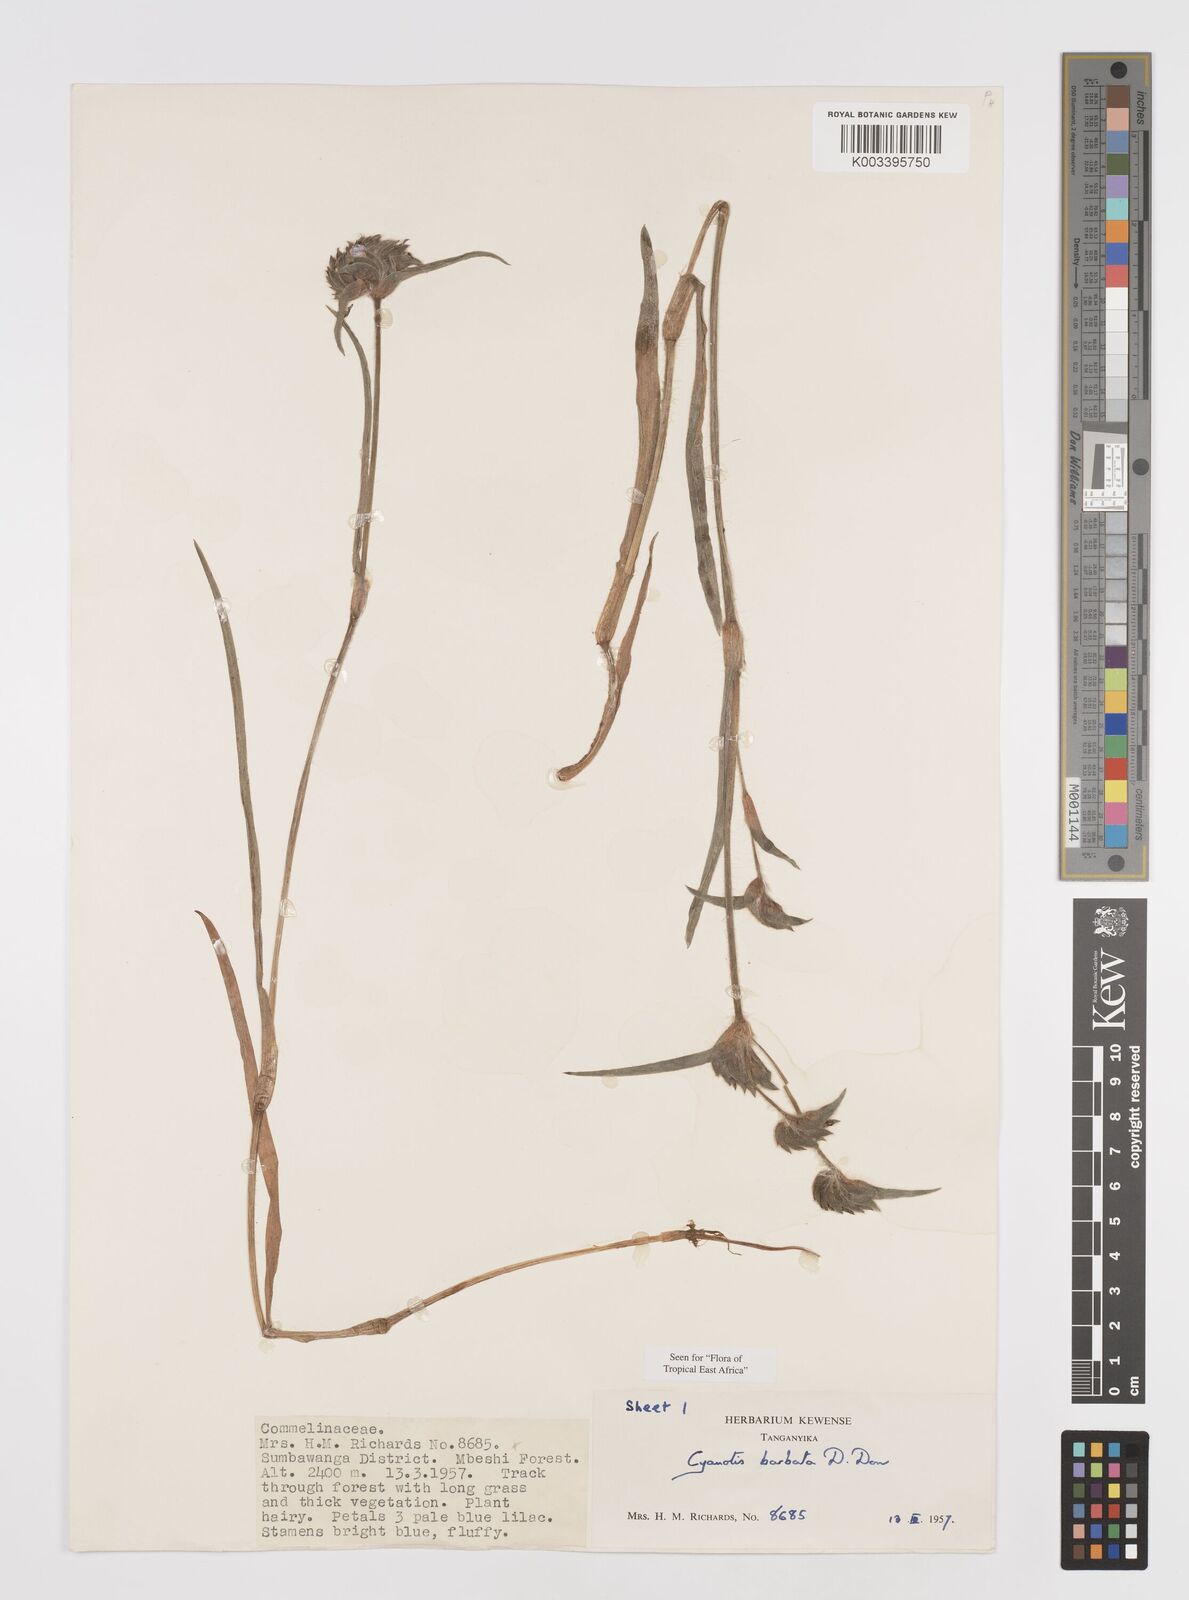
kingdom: Plantae
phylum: Tracheophyta
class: Liliopsida
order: Commelinales
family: Commelinaceae
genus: Cyanotis
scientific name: Cyanotis vaga
